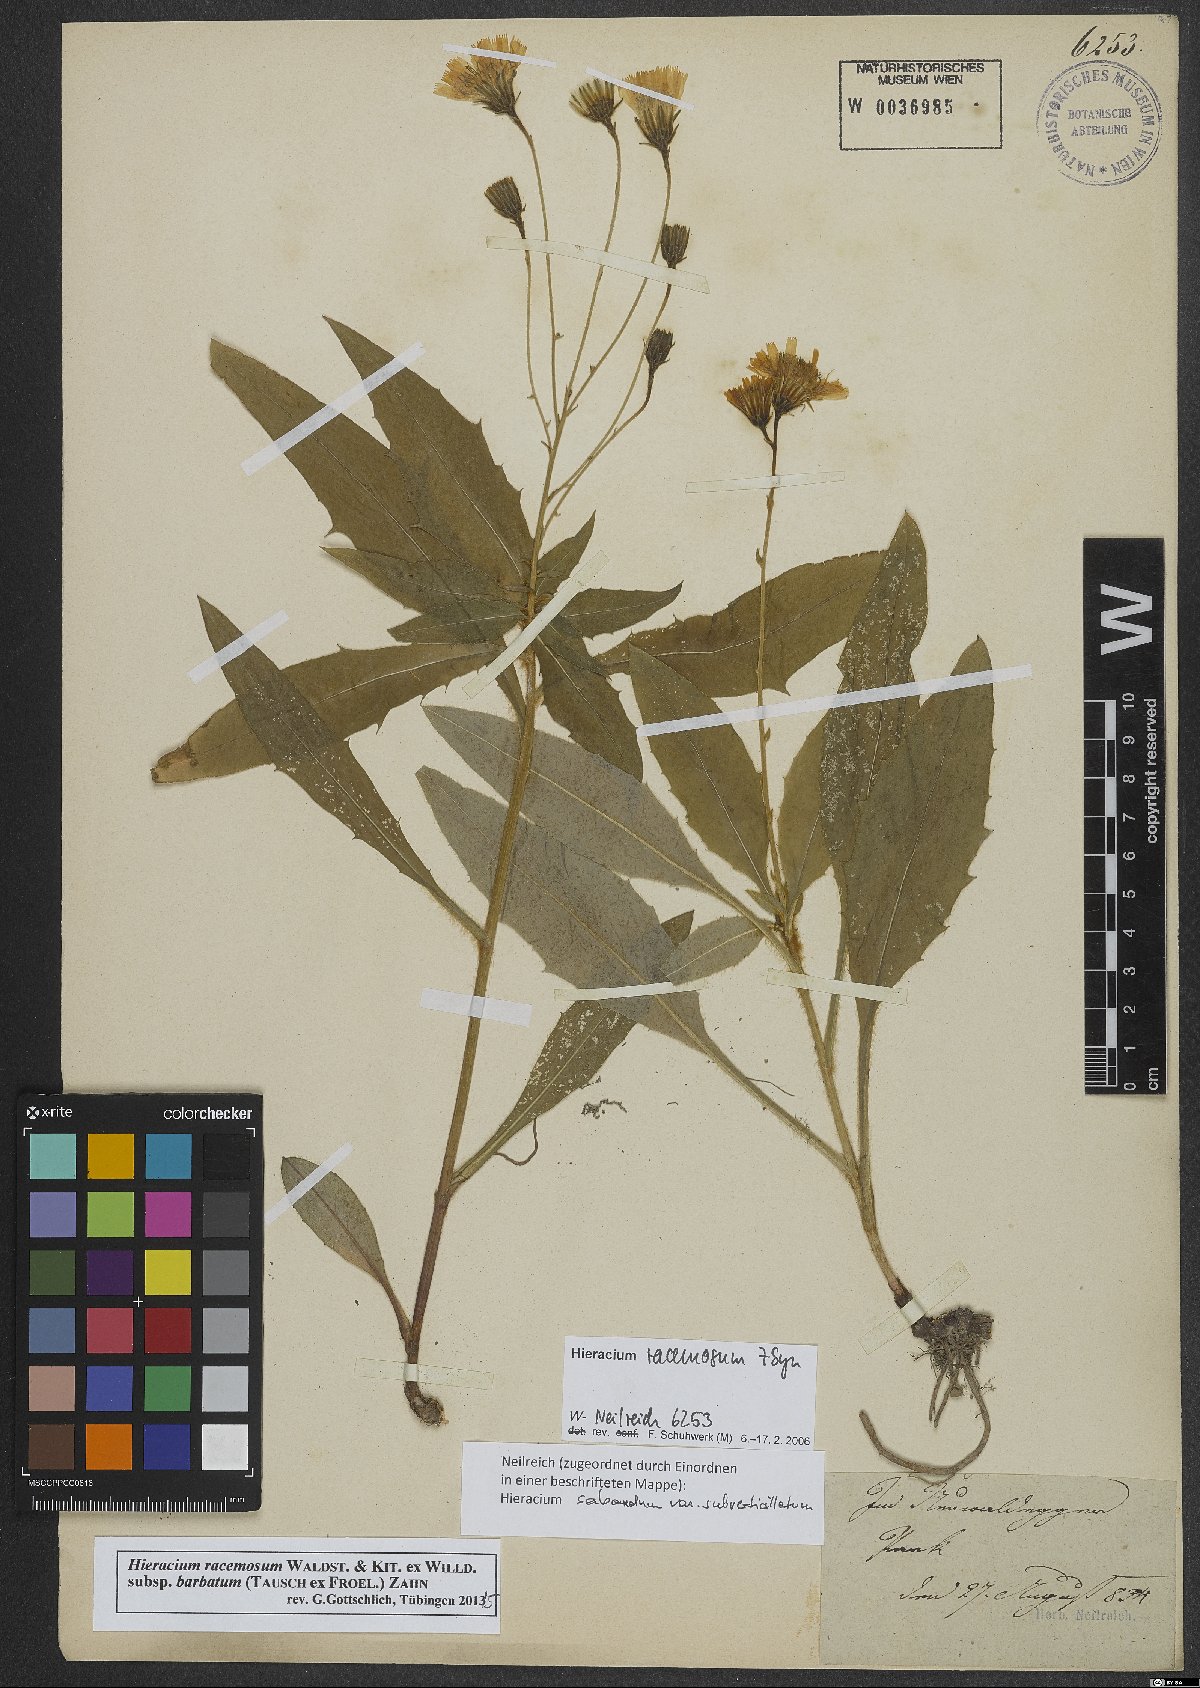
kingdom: Plantae
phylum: Tracheophyta
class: Magnoliopsida
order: Asterales
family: Asteraceae
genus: Hieracium
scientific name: Hieracium racemosum
